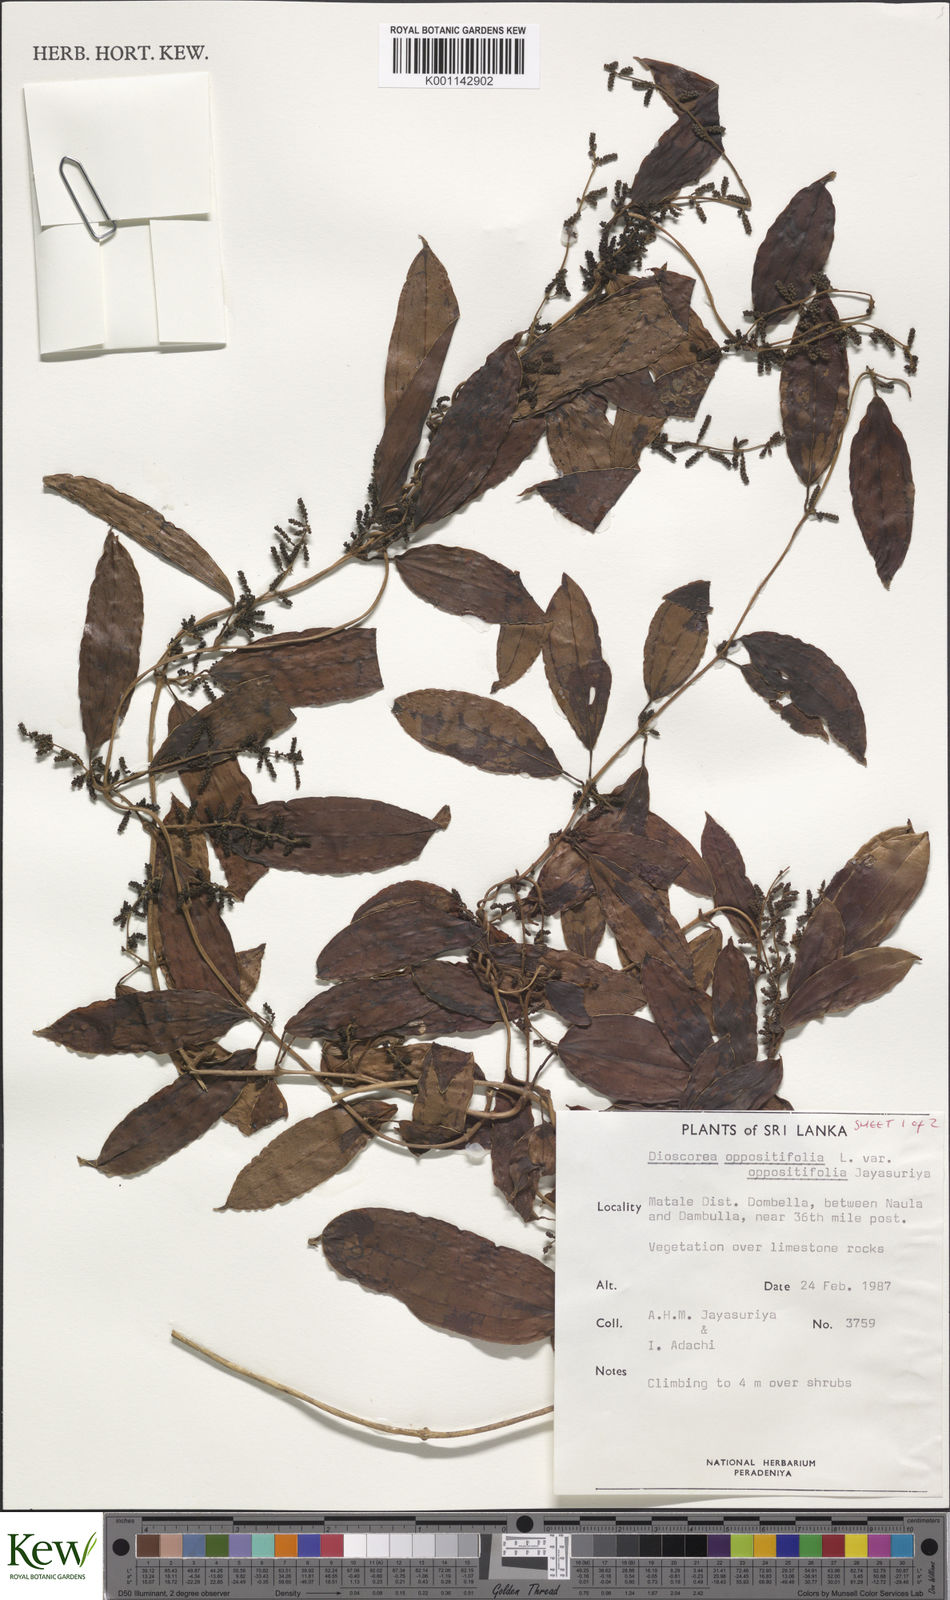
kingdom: Plantae
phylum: Tracheophyta
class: Liliopsida
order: Dioscoreales
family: Dioscoreaceae
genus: Dioscorea
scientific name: Dioscorea oppositifolia
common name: Chinese yam
